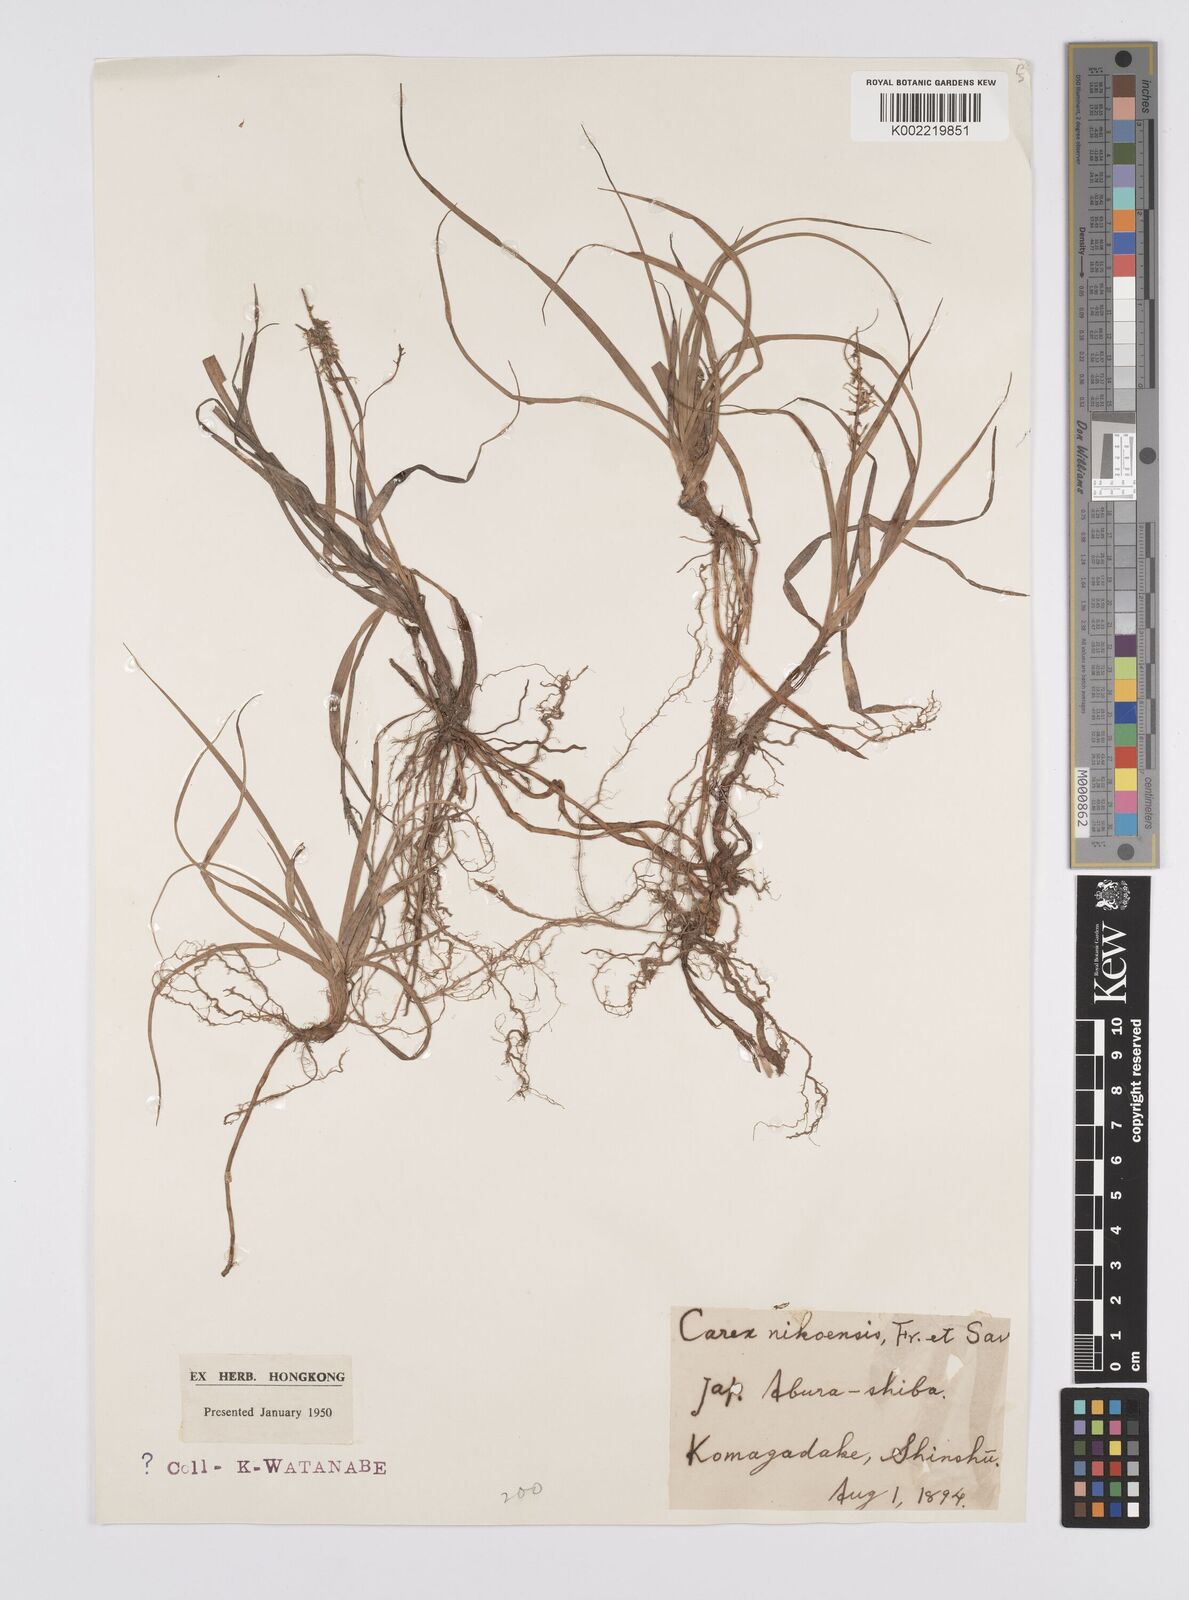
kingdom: Plantae
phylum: Tracheophyta
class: Liliopsida
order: Poales
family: Cyperaceae
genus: Carex
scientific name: Carex satsumensis
